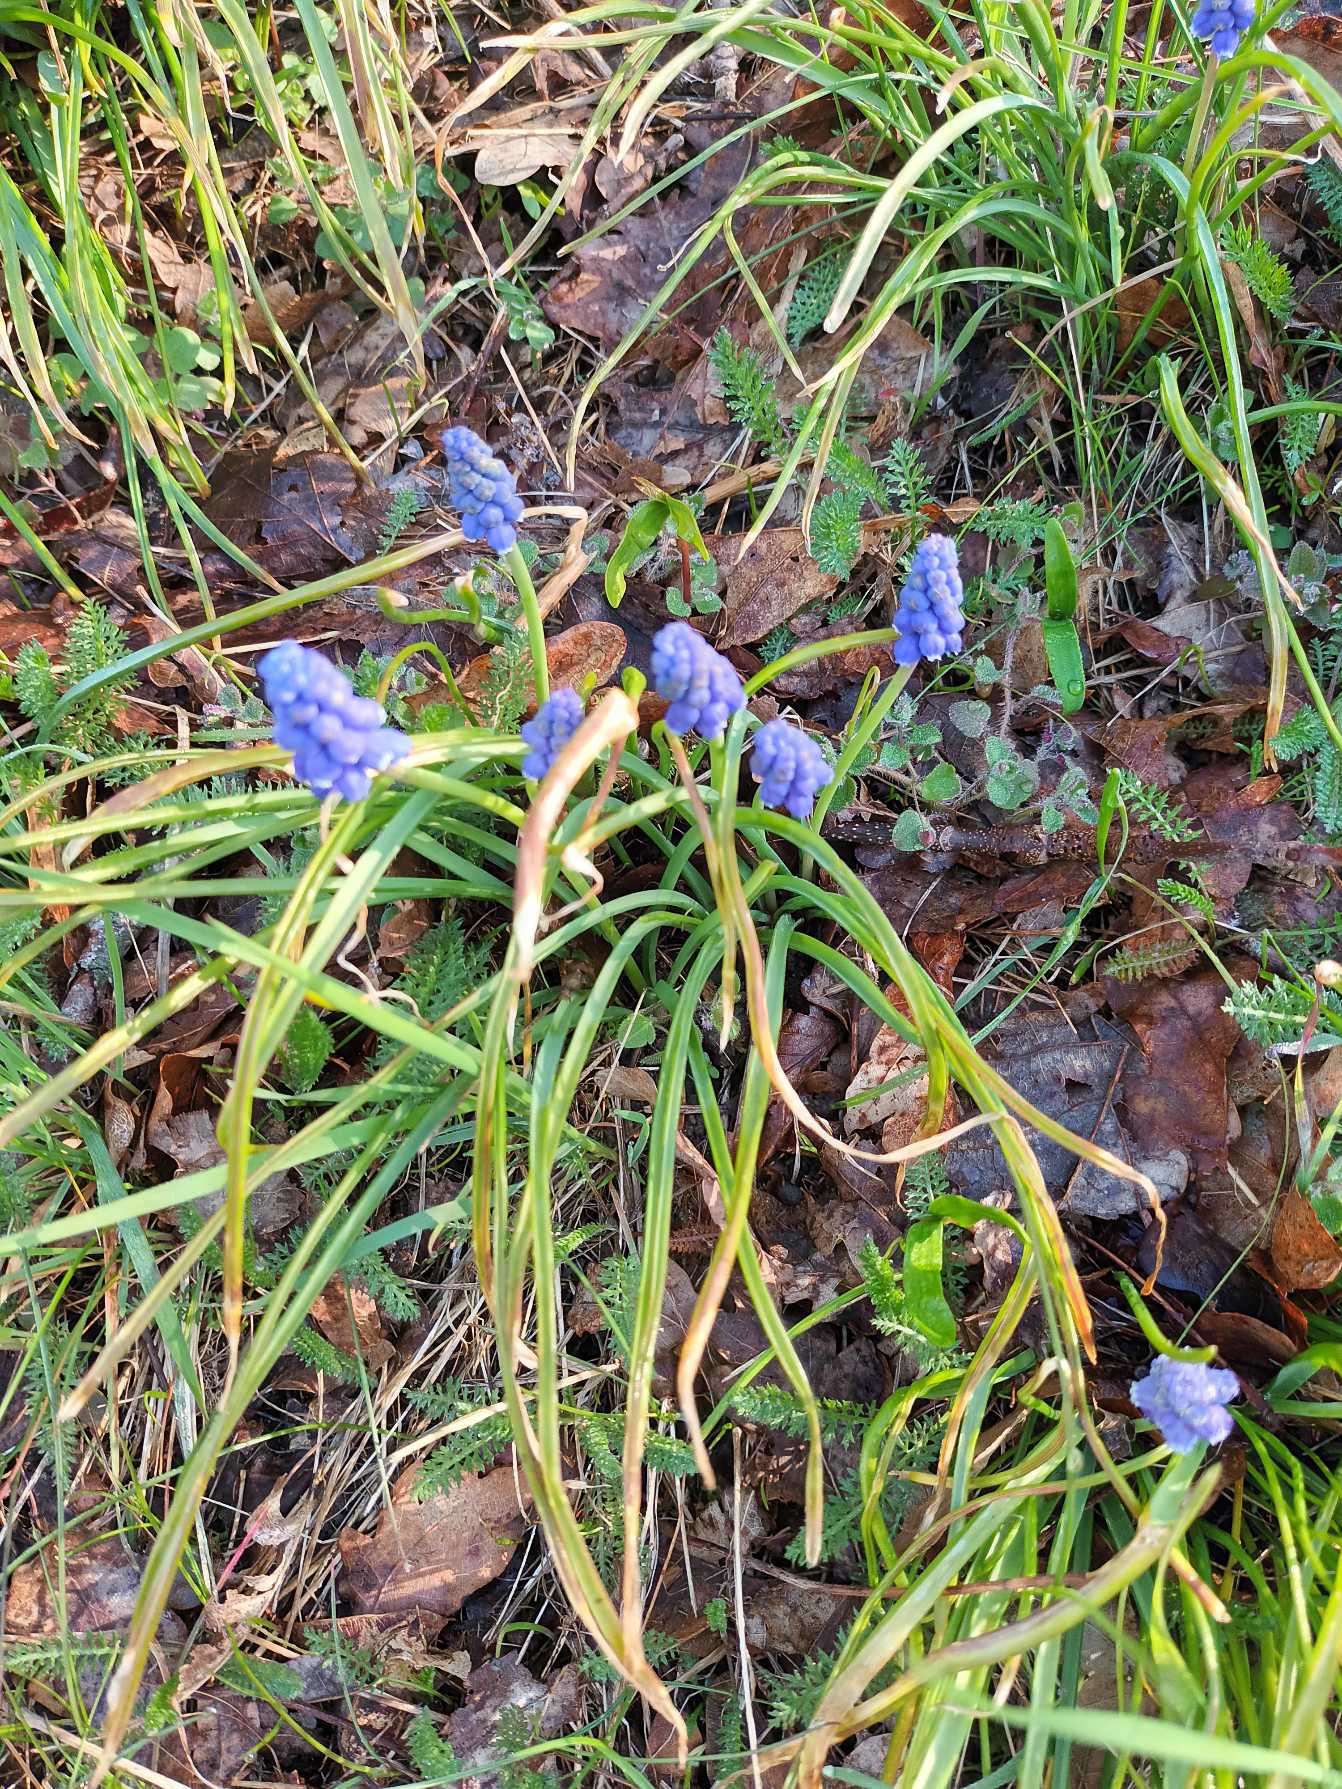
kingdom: Plantae
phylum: Tracheophyta
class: Liliopsida
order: Asparagales
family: Asparagaceae
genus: Muscari
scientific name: Muscari armeniacum
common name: Armensk perlehyacint
